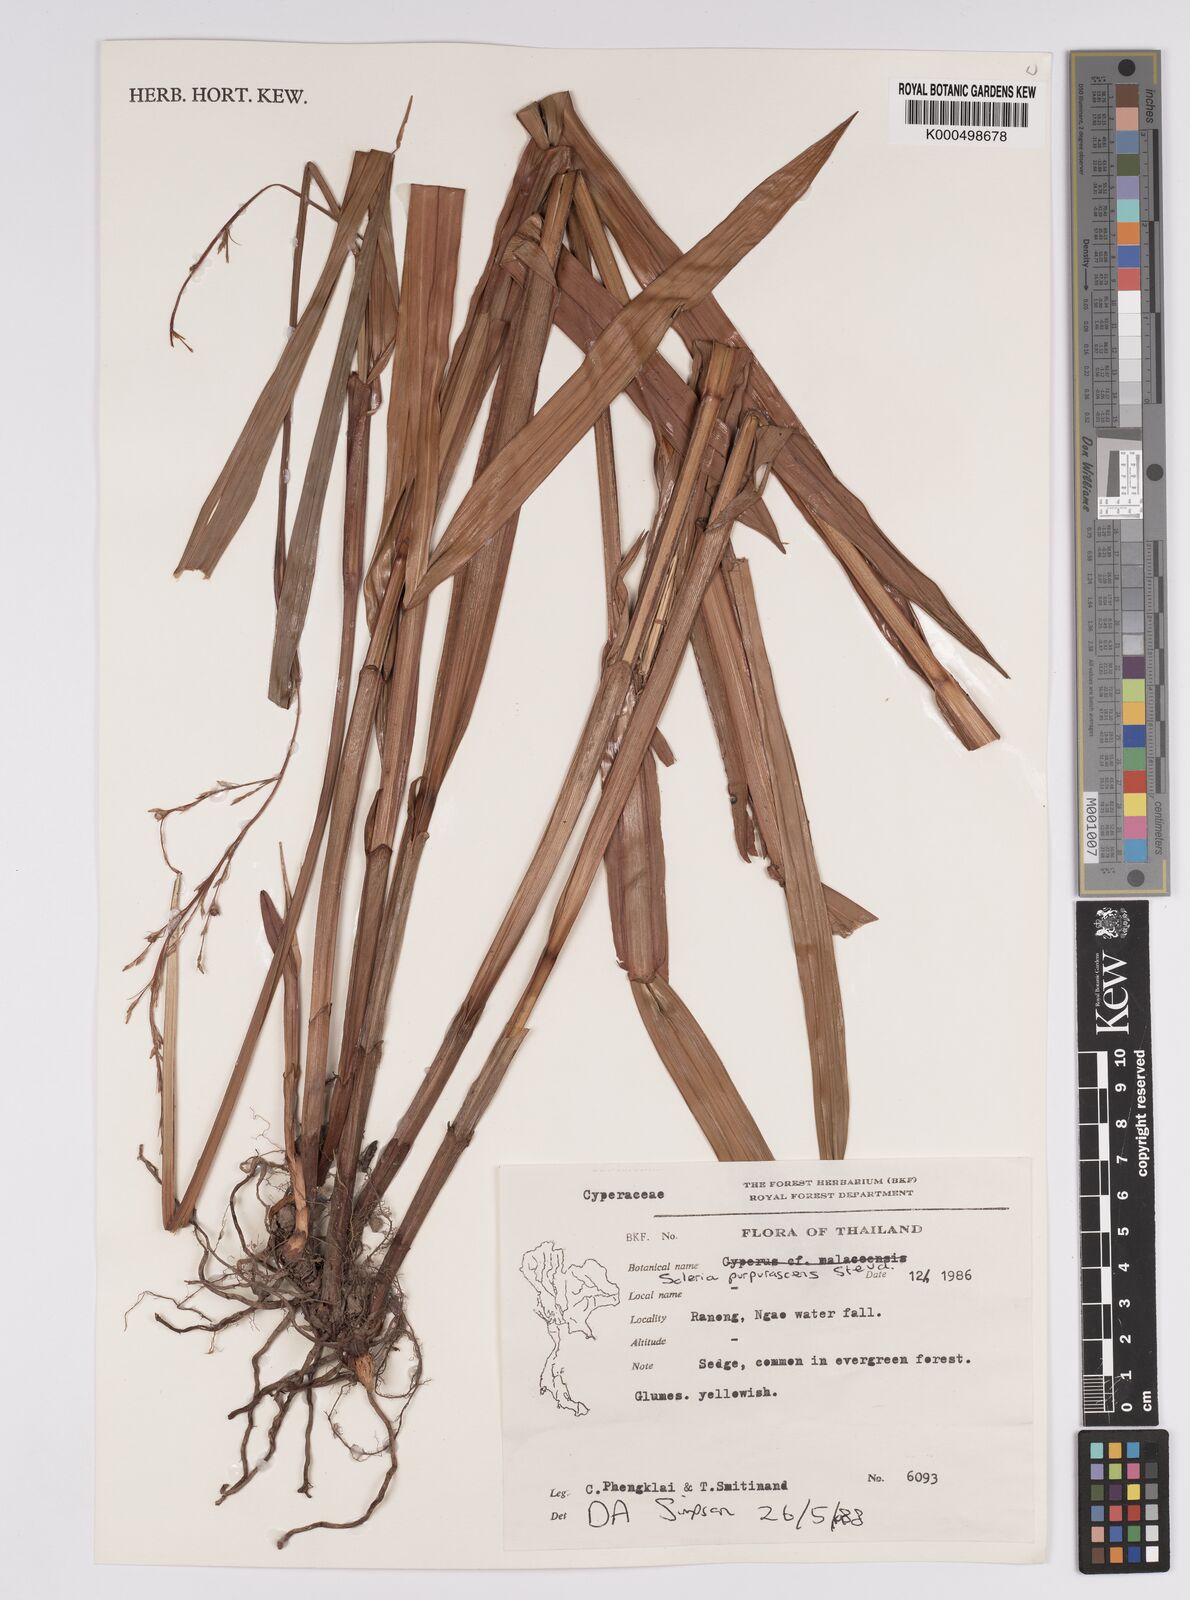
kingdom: Plantae
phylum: Tracheophyta
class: Liliopsida
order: Poales
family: Cyperaceae
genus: Scleria
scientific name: Scleria purpurascens
